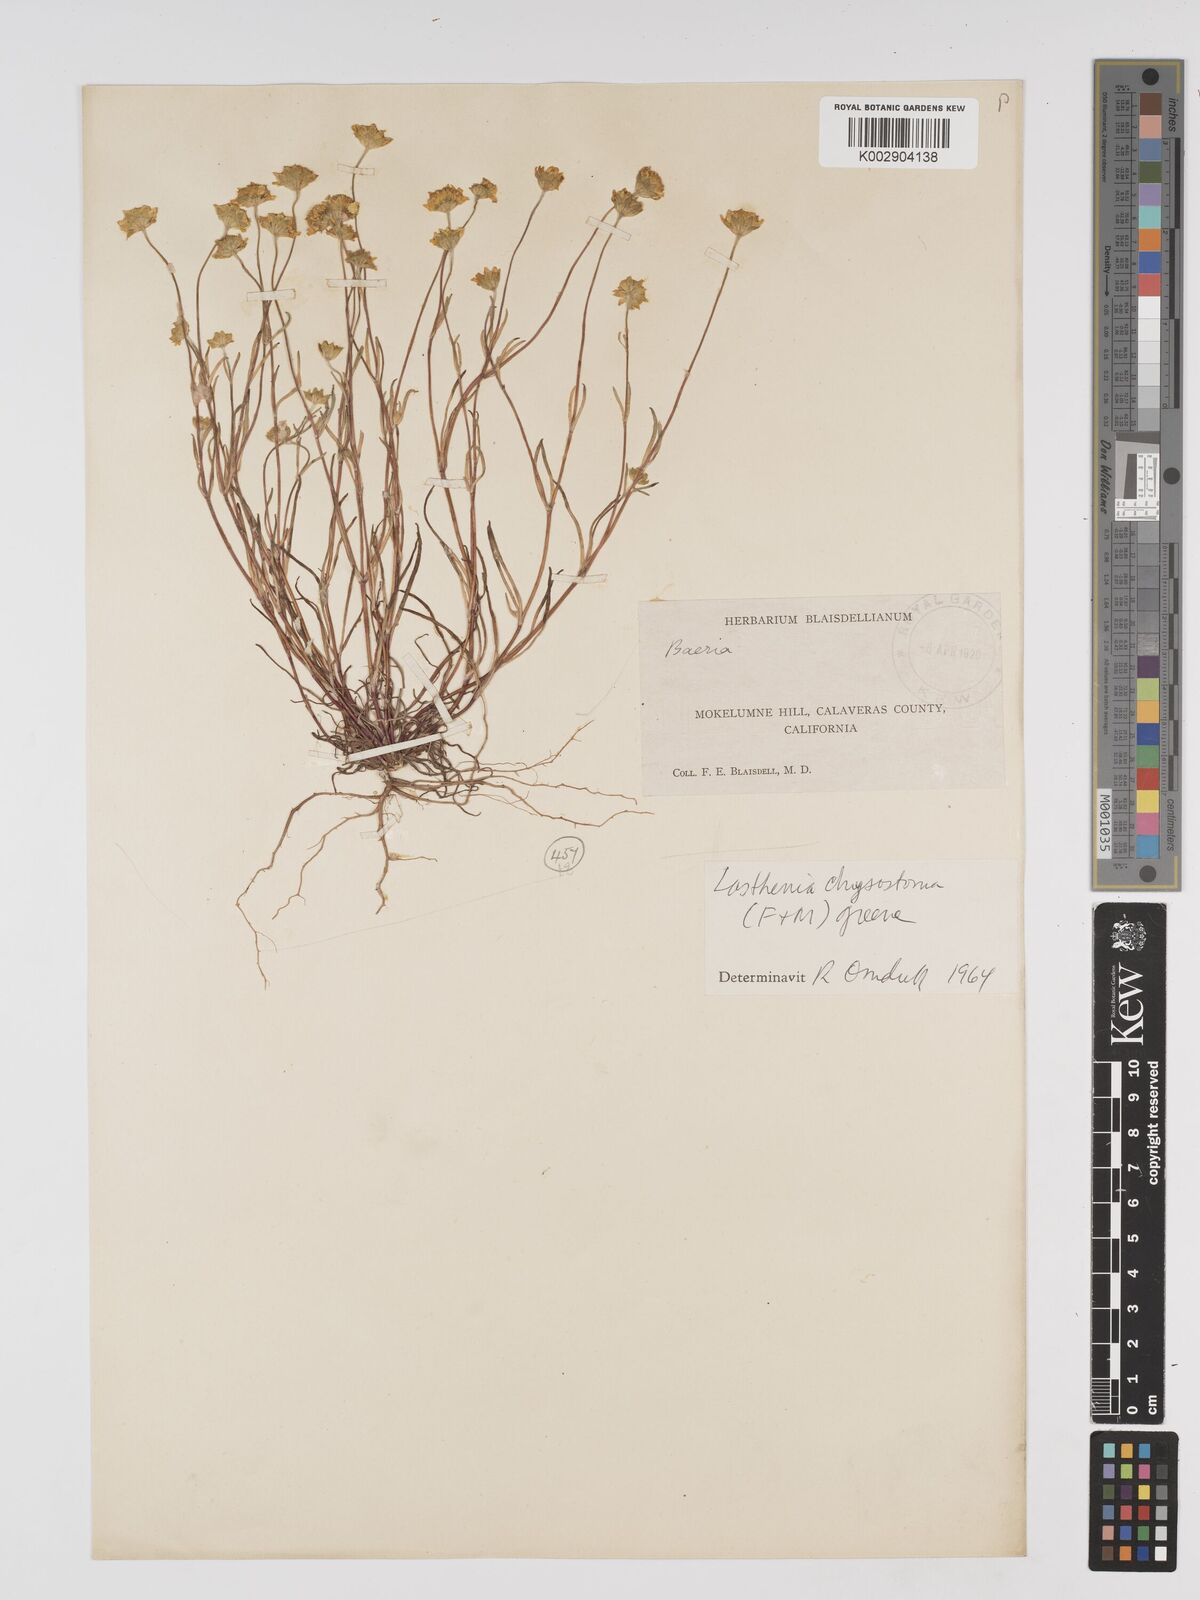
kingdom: Plantae
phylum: Tracheophyta
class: Magnoliopsida
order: Asterales
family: Asteraceae
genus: Lasthenia
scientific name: Lasthenia chrysantha
